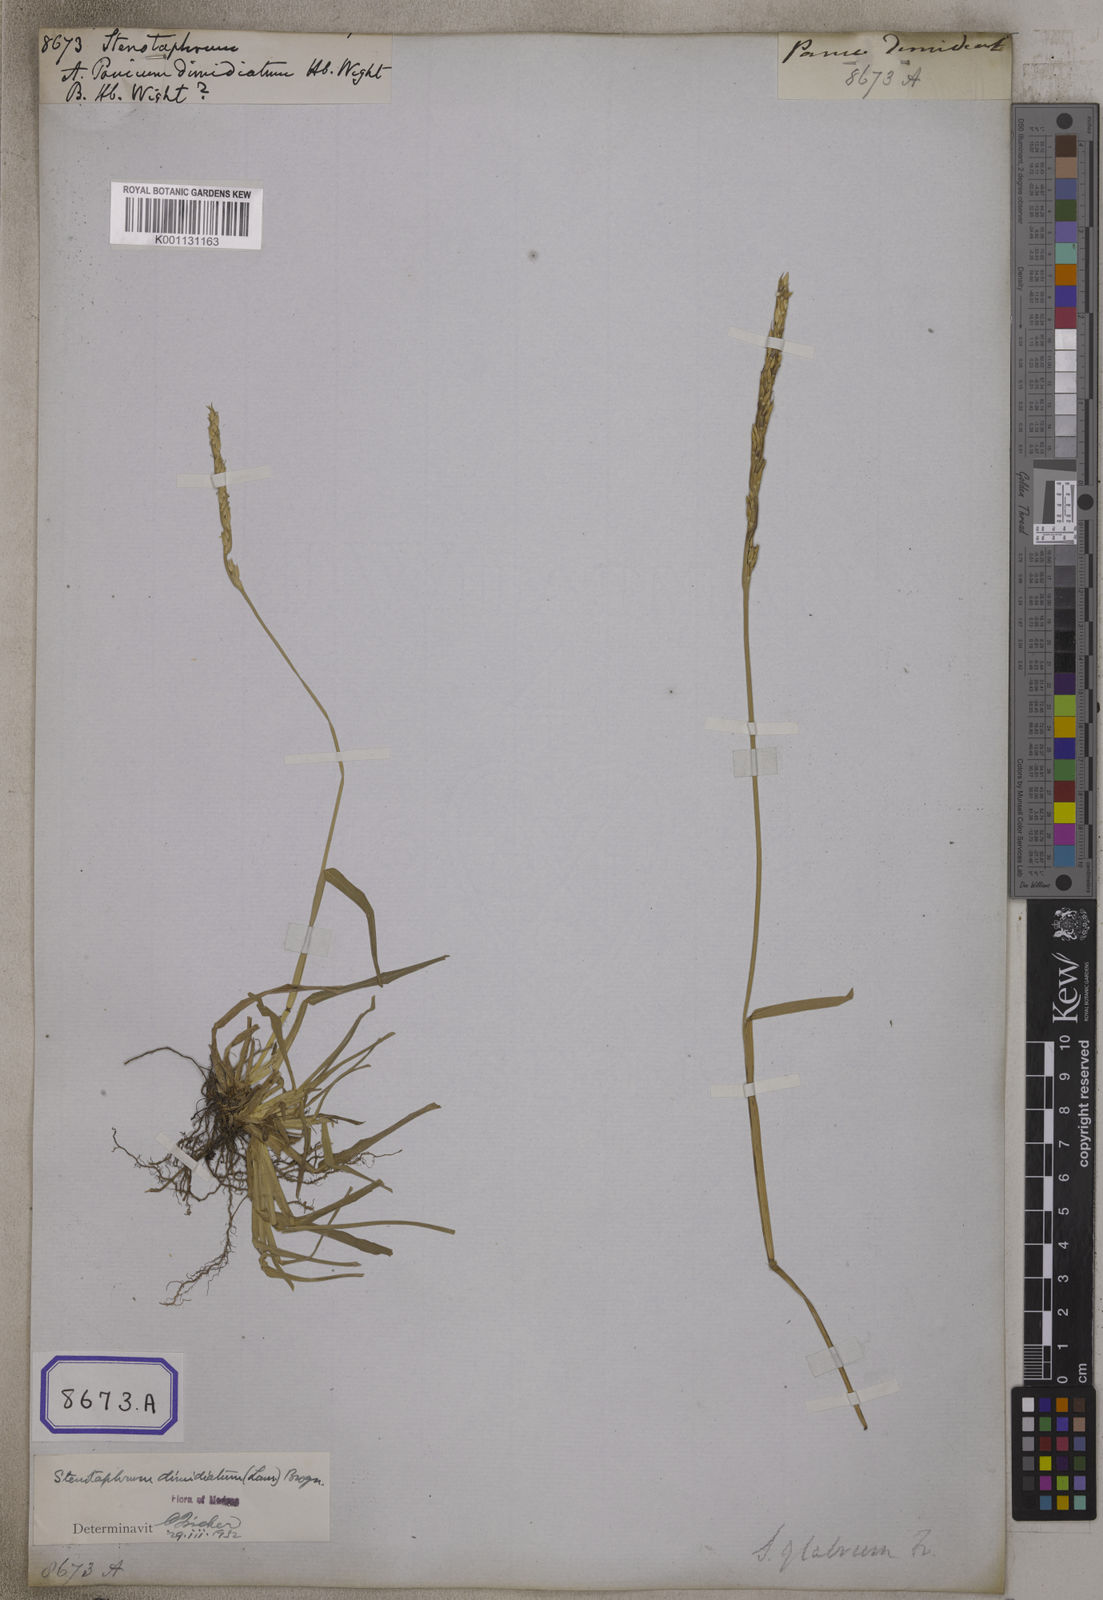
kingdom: Plantae
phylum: Tracheophyta
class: Liliopsida
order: Poales
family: Poaceae
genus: Stenotaphrum
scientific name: Stenotaphrum
